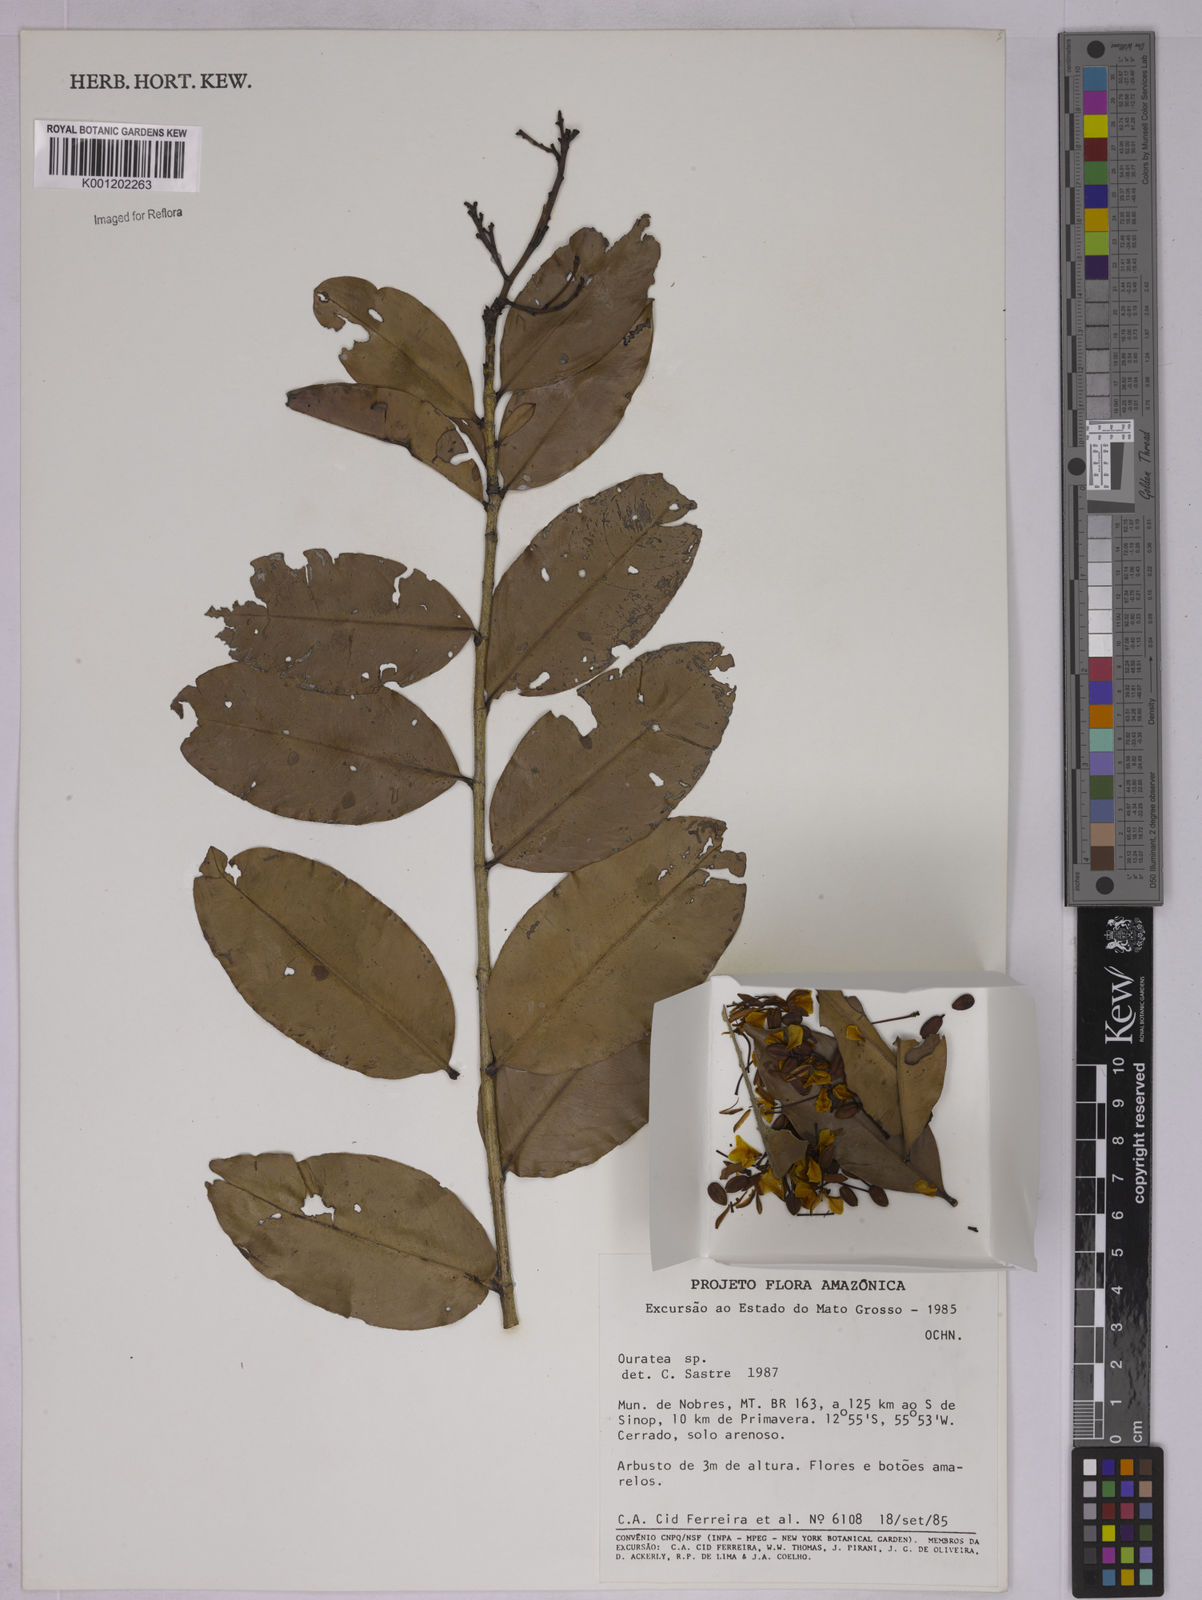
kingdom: Plantae
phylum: Tracheophyta
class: Magnoliopsida
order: Malpighiales
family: Ochnaceae
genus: Ouratea
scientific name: Ouratea
